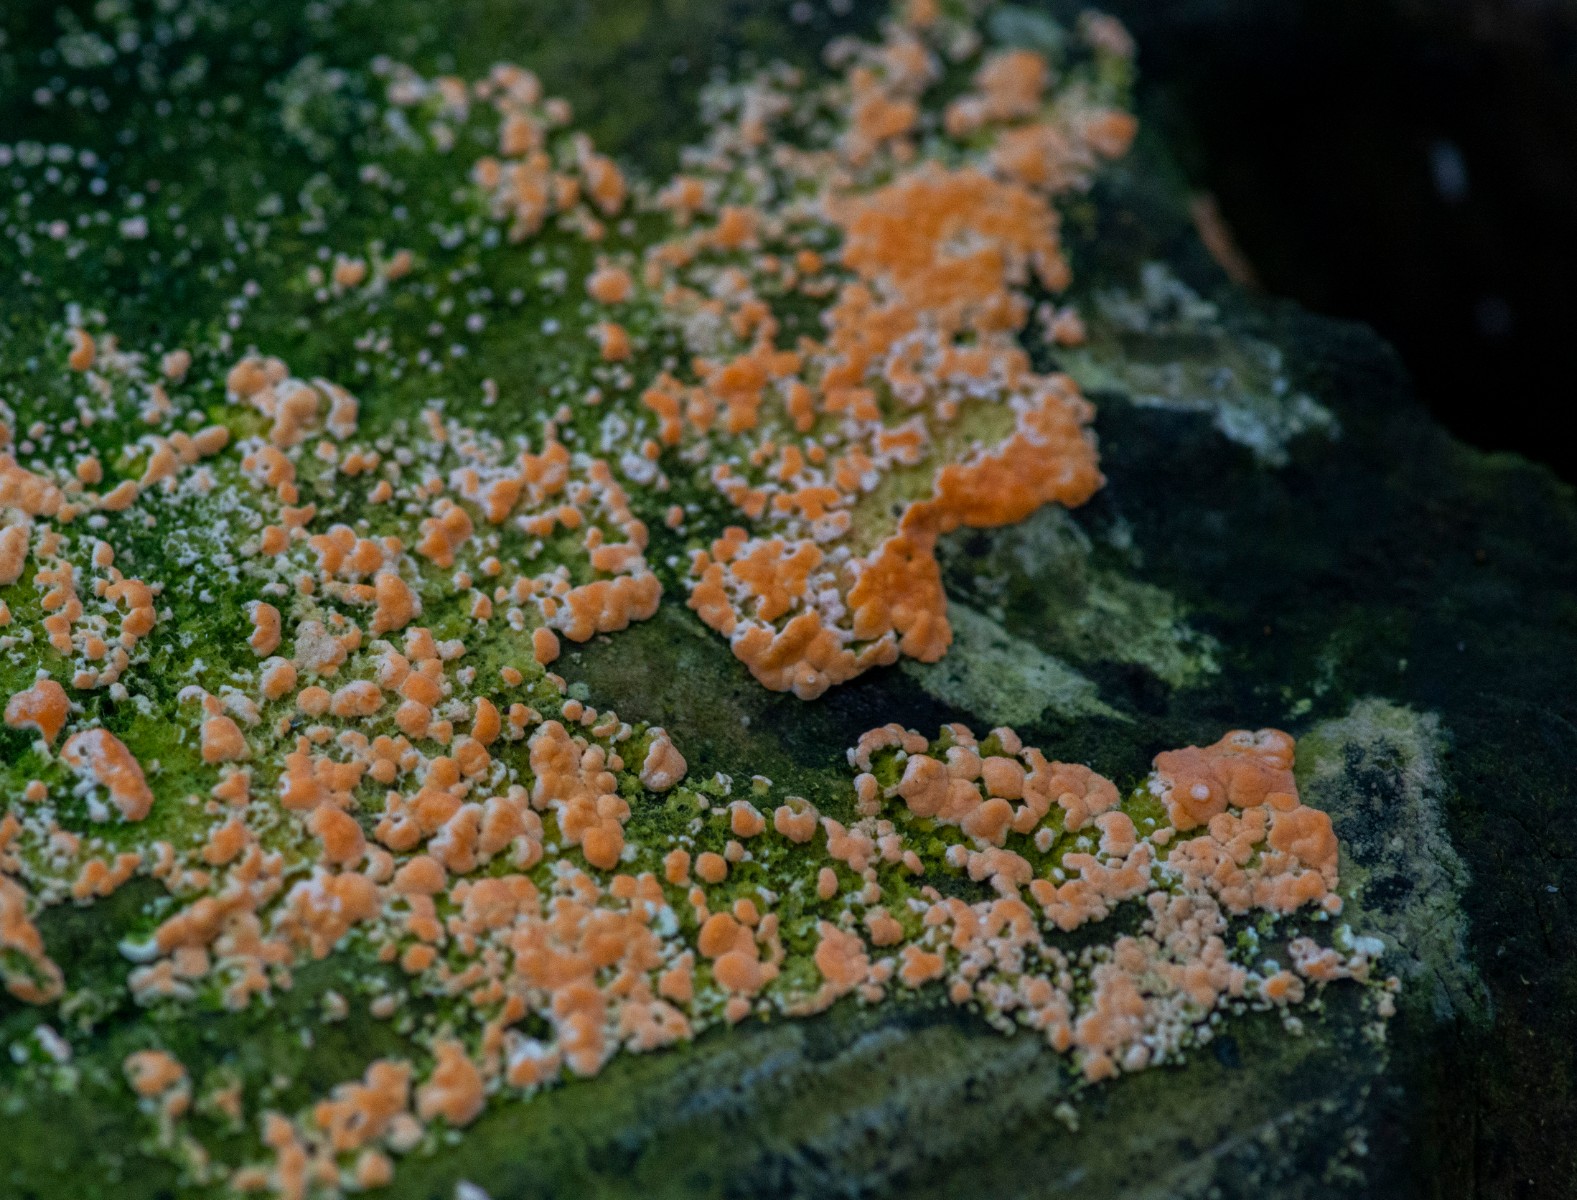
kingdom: Fungi
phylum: Basidiomycota
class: Agaricomycetes
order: Russulales
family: Peniophoraceae
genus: Peniophora
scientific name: Peniophora incarnata
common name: laksefarvet voksskind
